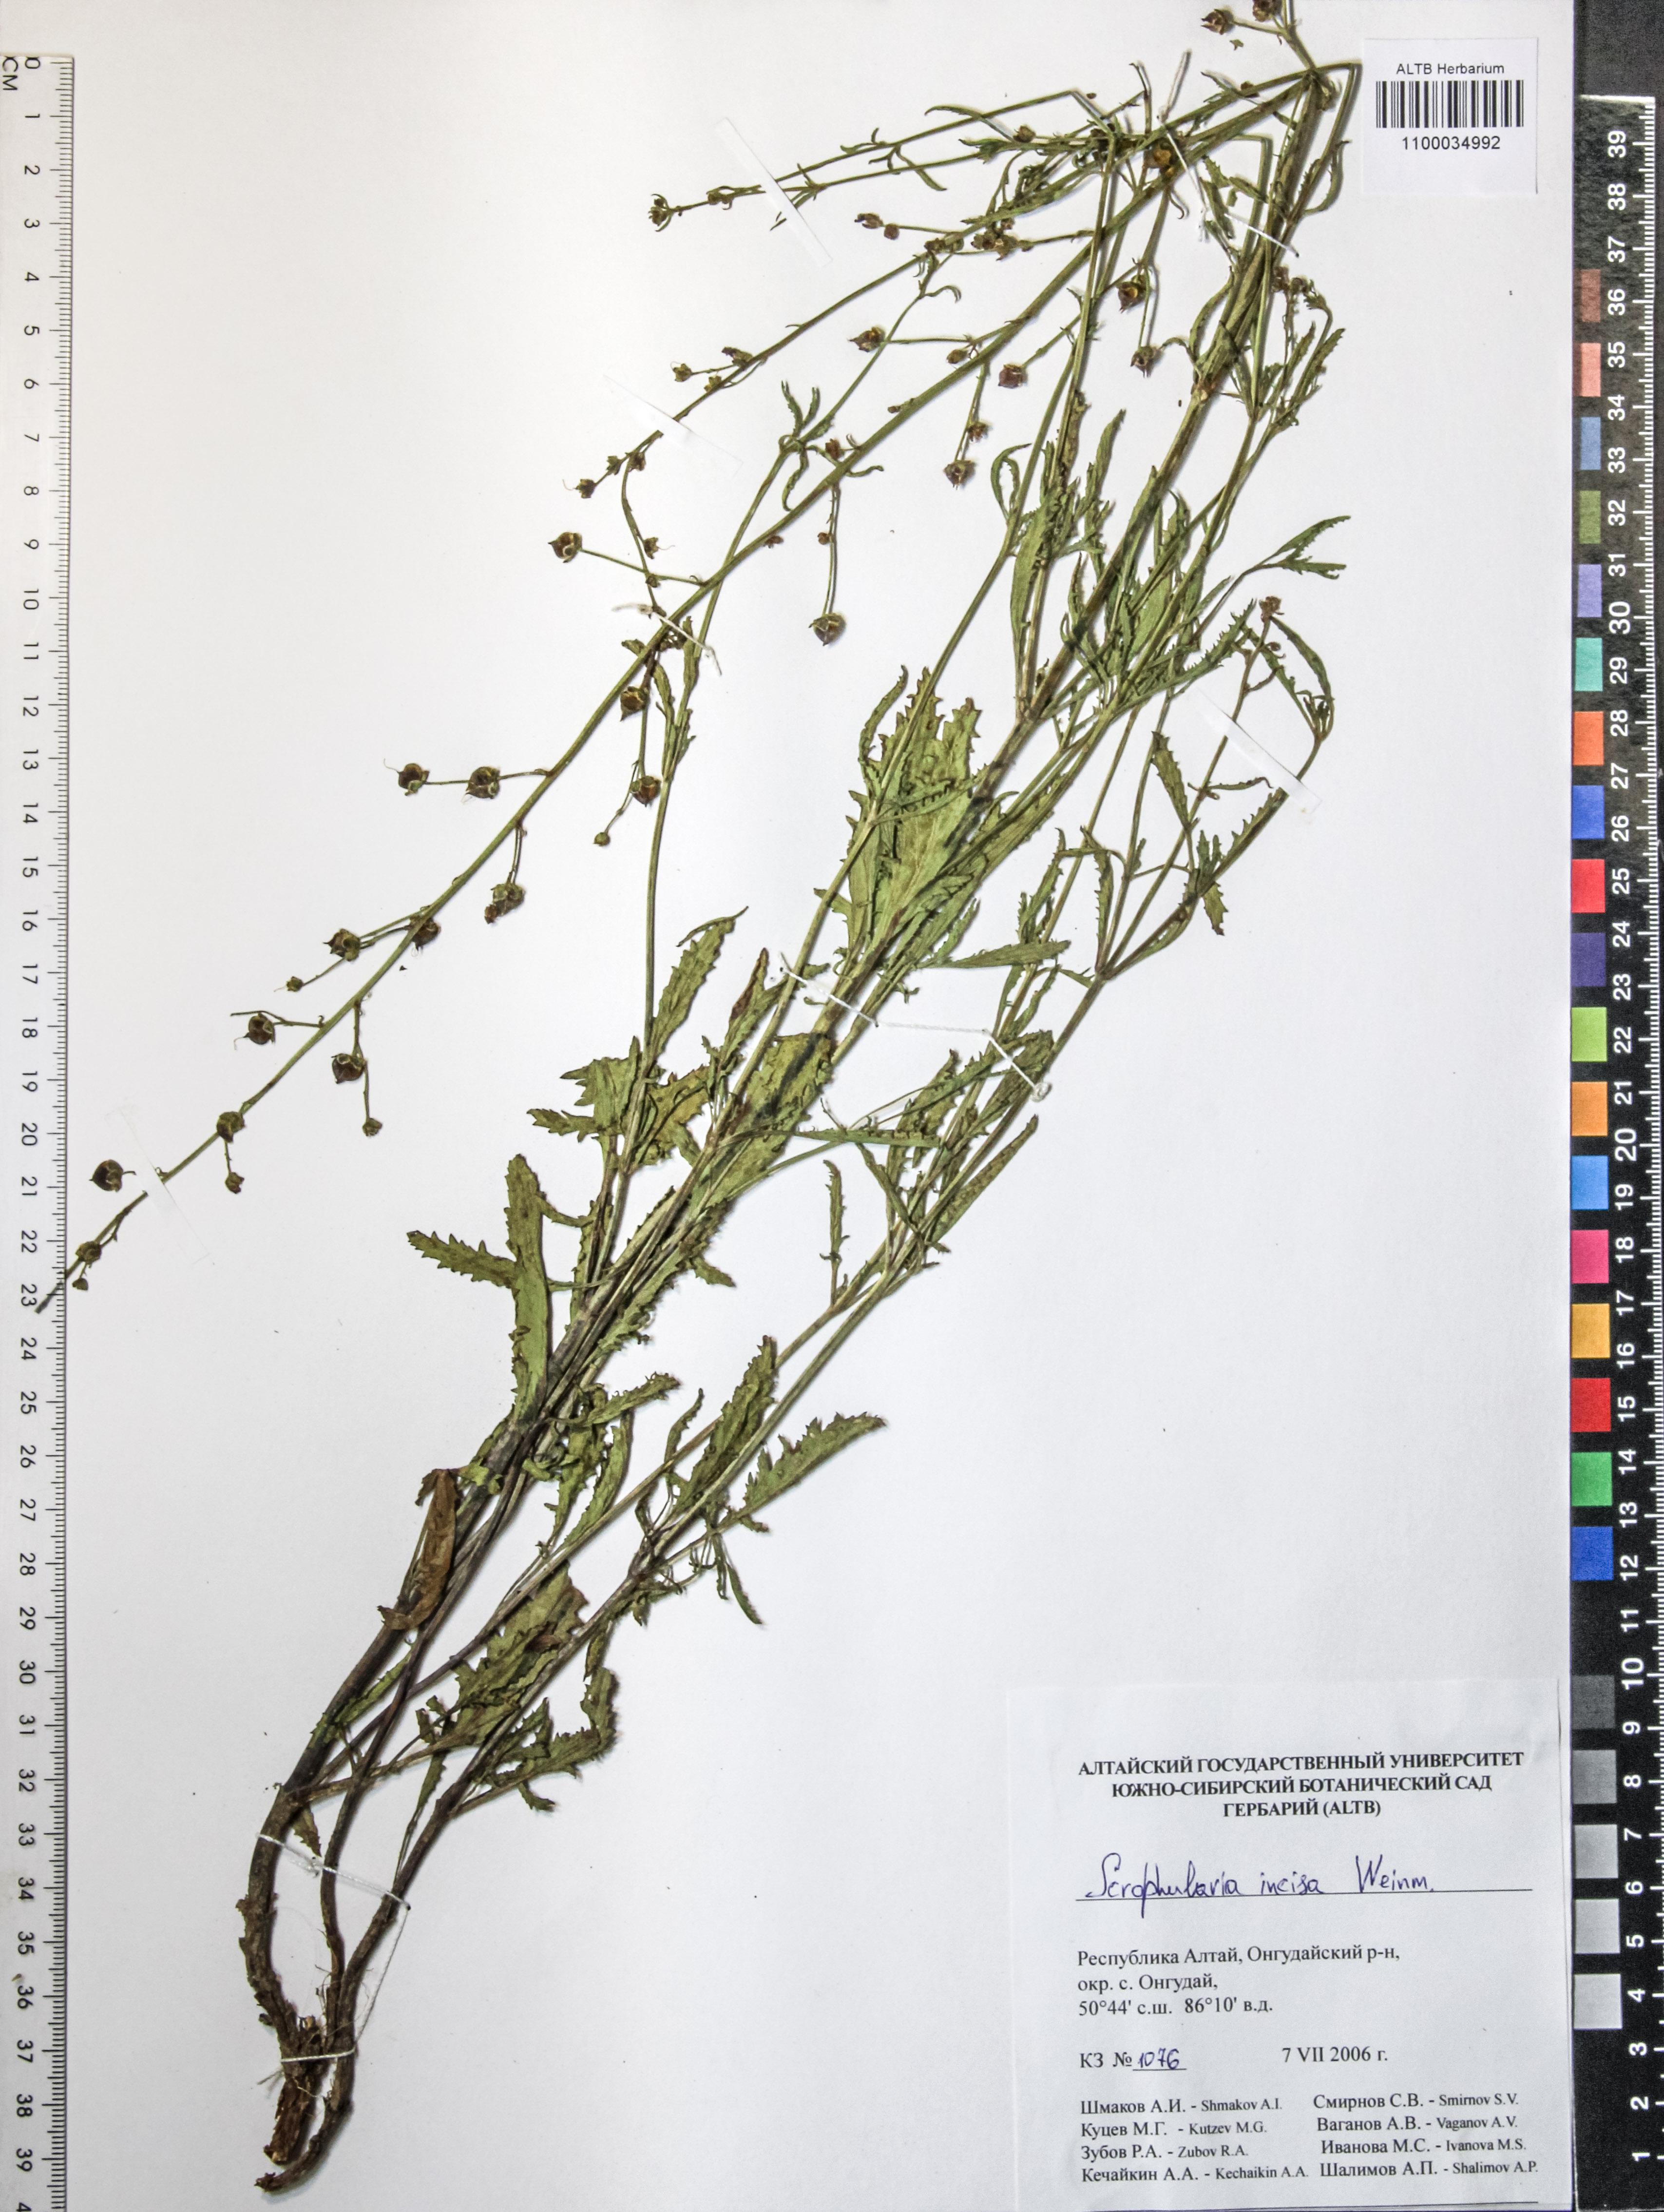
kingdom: Plantae
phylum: Tracheophyta
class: Magnoliopsida
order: Lamiales
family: Scrophulariaceae
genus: Scrophularia
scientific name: Scrophularia incisa
